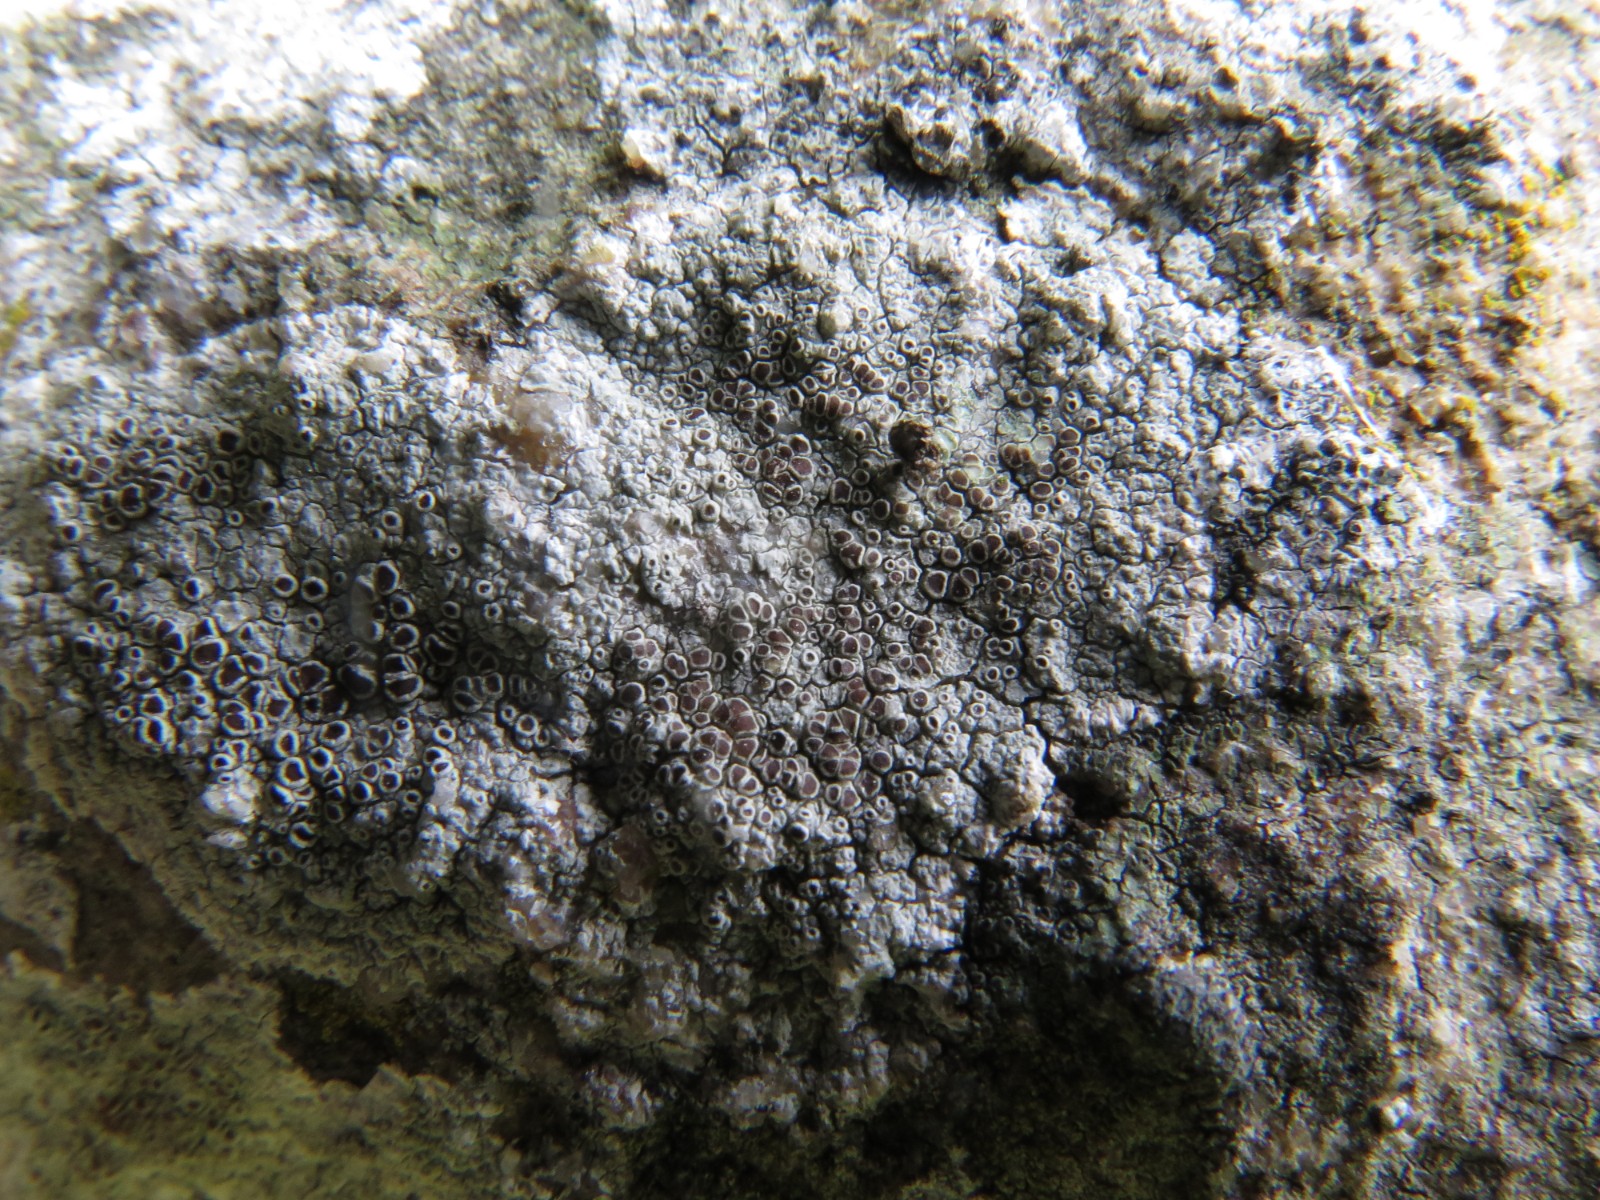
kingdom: Fungi
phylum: Ascomycota
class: Lecanoromycetes
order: Lecanorales
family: Lecanoraceae
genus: Lecanora
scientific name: Lecanora campestris
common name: mur-kantskivelav
